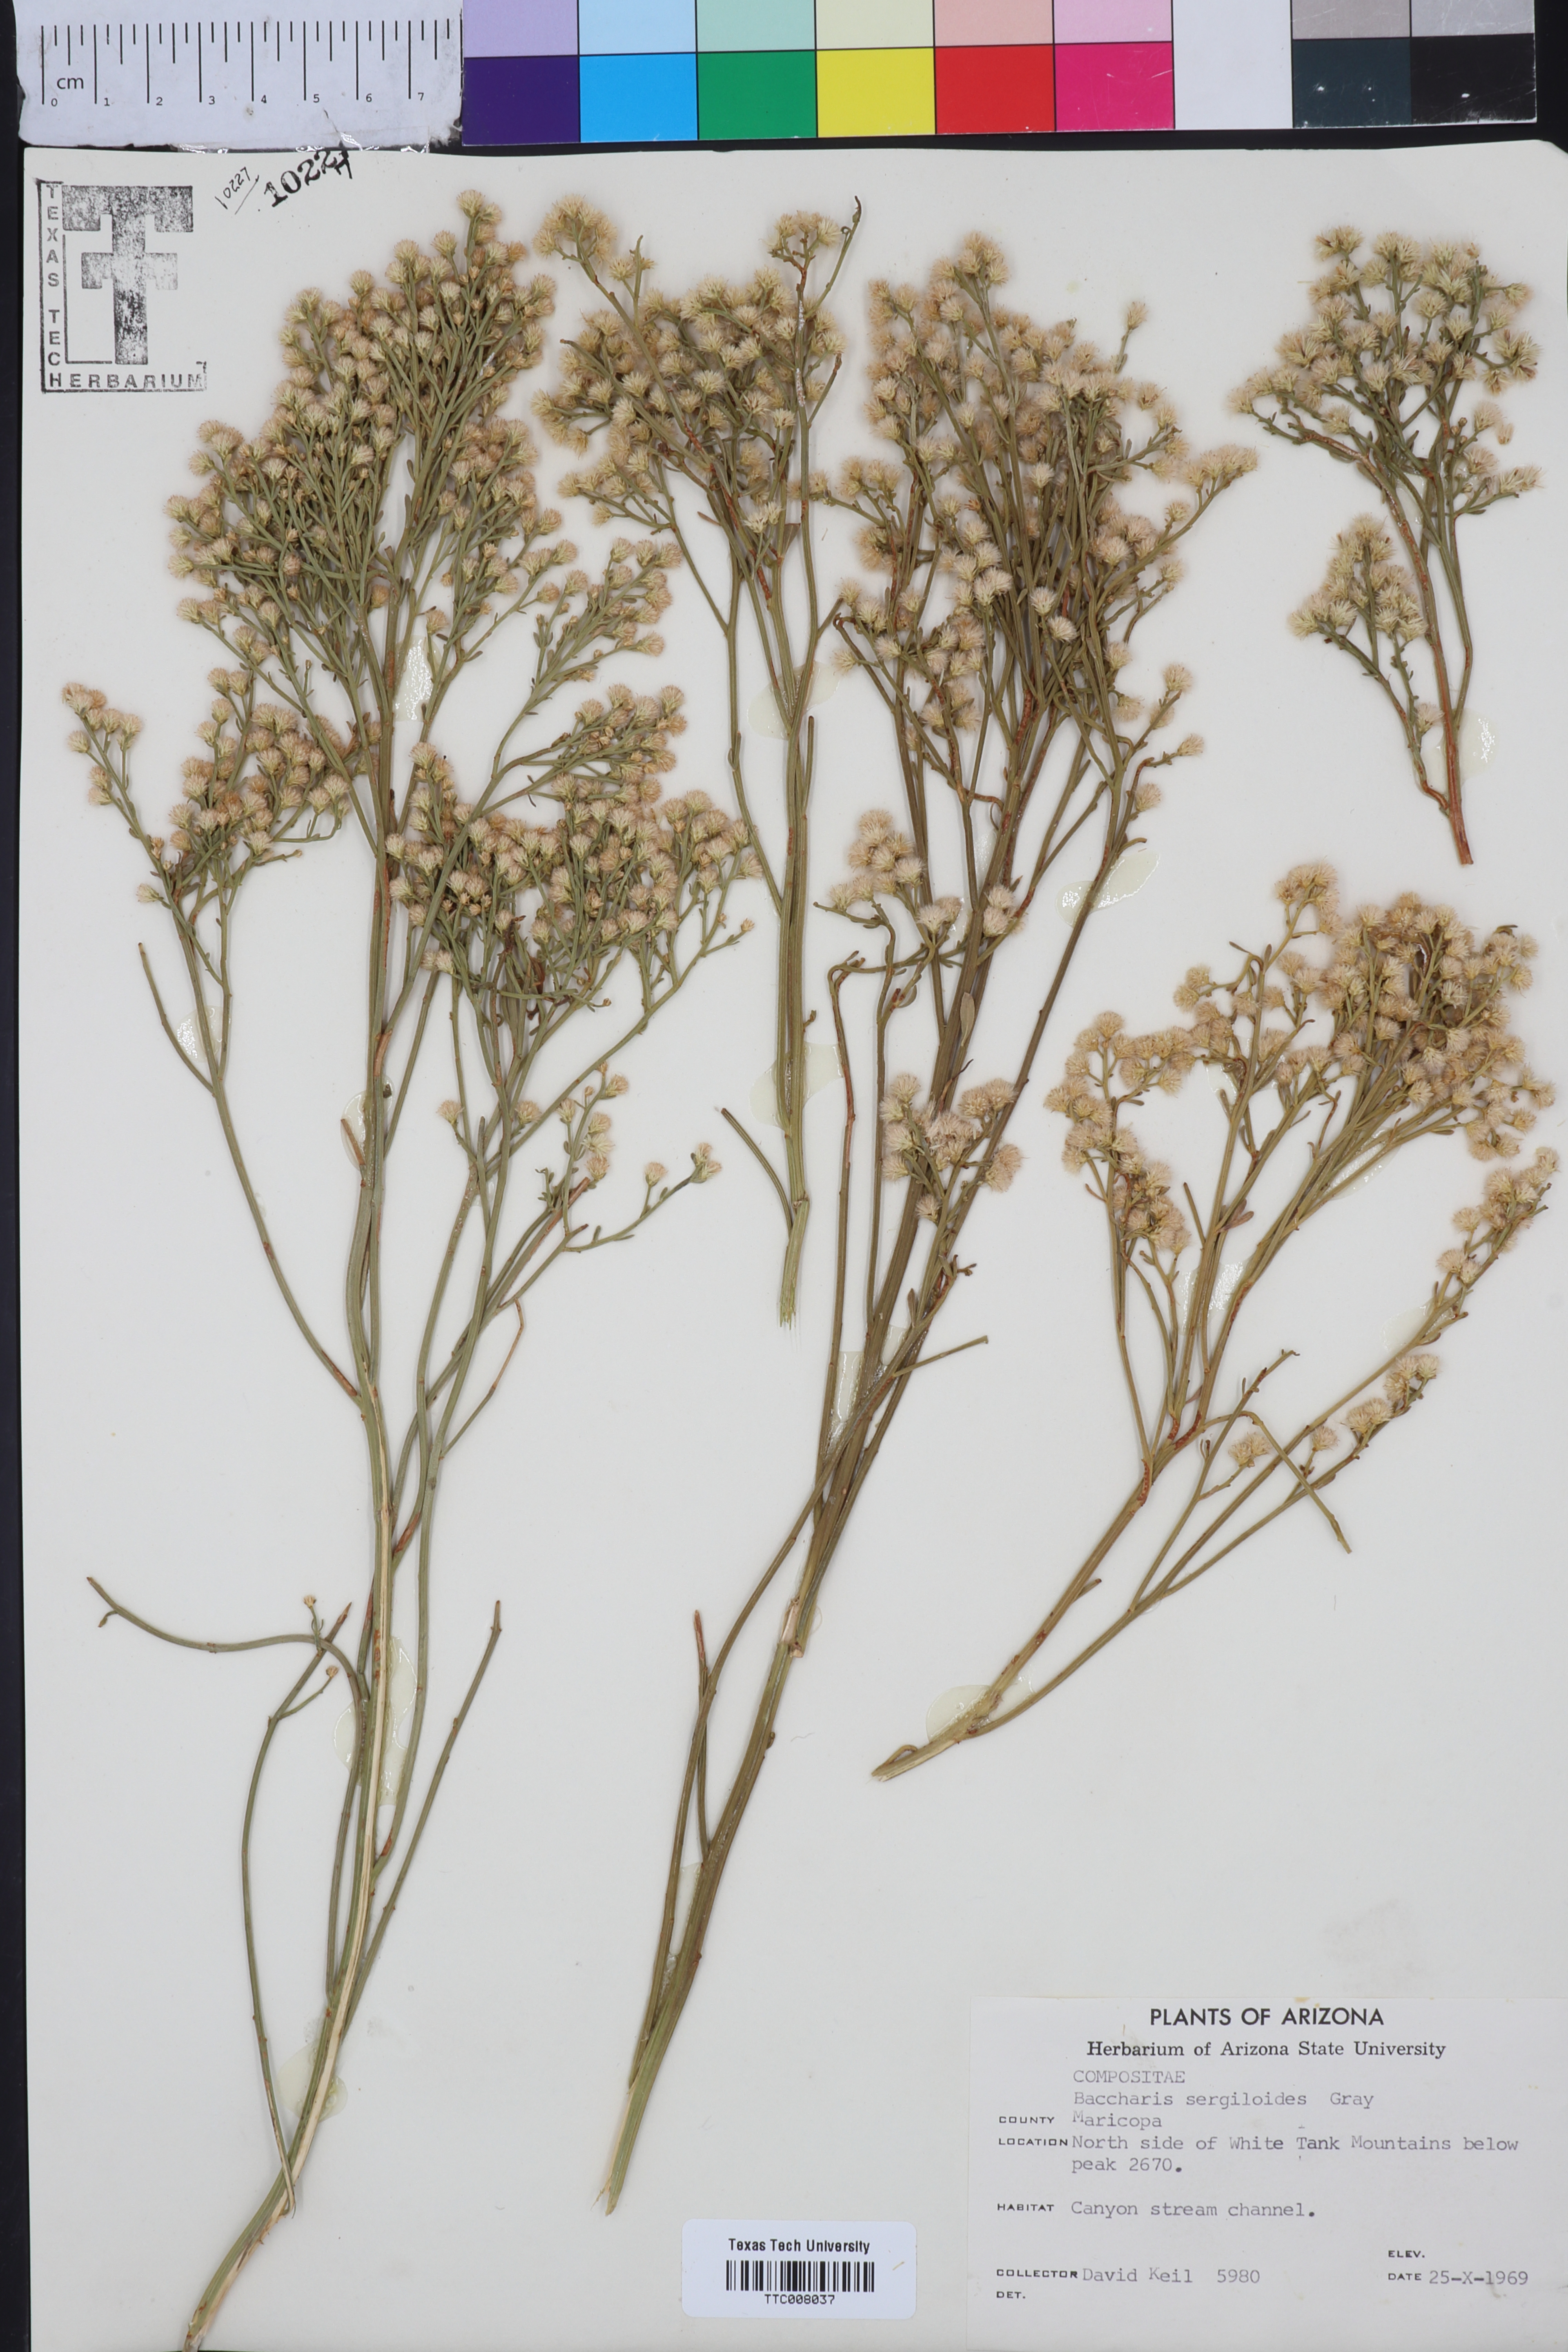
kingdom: Plantae
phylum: Tracheophyta
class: Magnoliopsida
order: Asterales
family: Asteraceae
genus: Baccharis
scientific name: Baccharis sergiloides
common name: Desert baccharis
